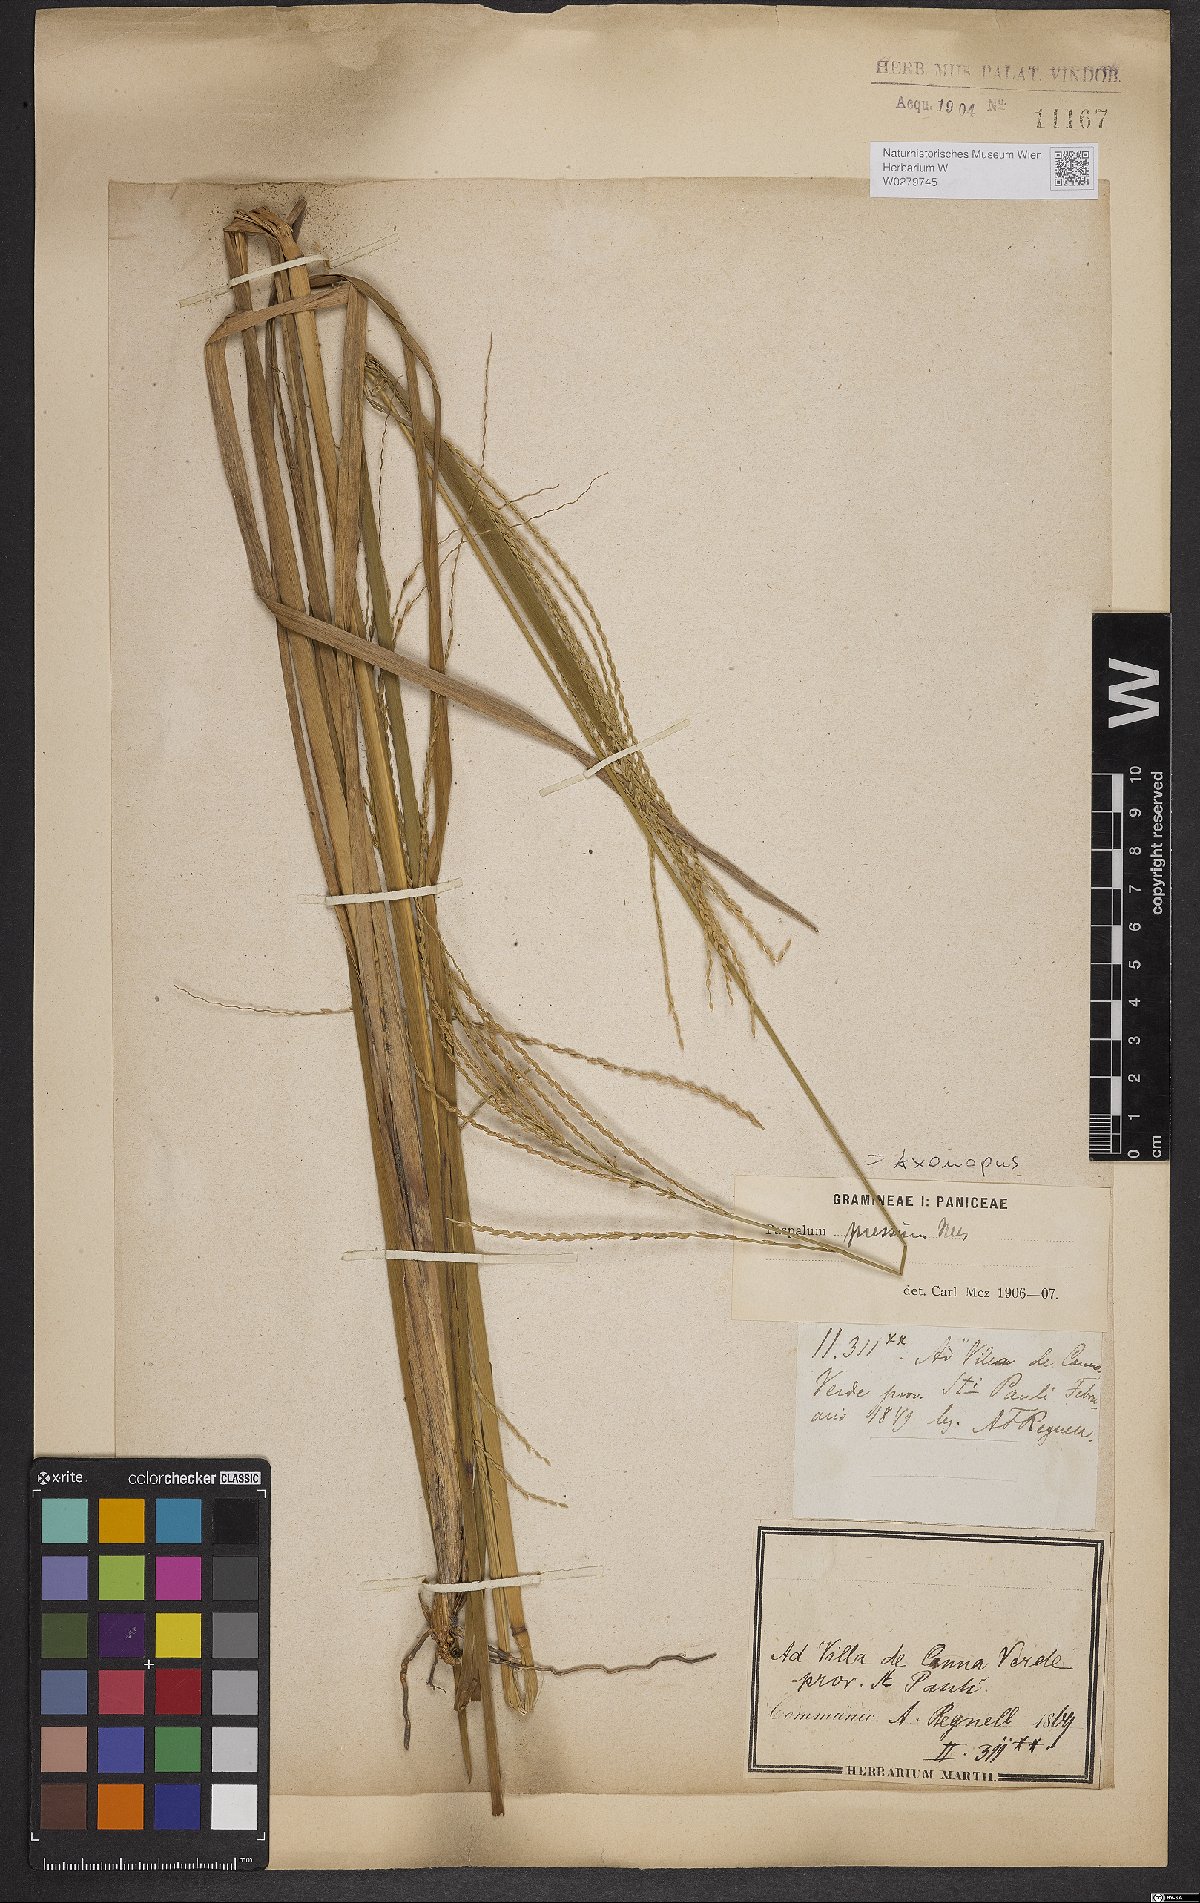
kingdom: Plantae
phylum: Tracheophyta
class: Liliopsida
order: Poales
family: Poaceae
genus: Axonopus
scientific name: Axonopus pressus
